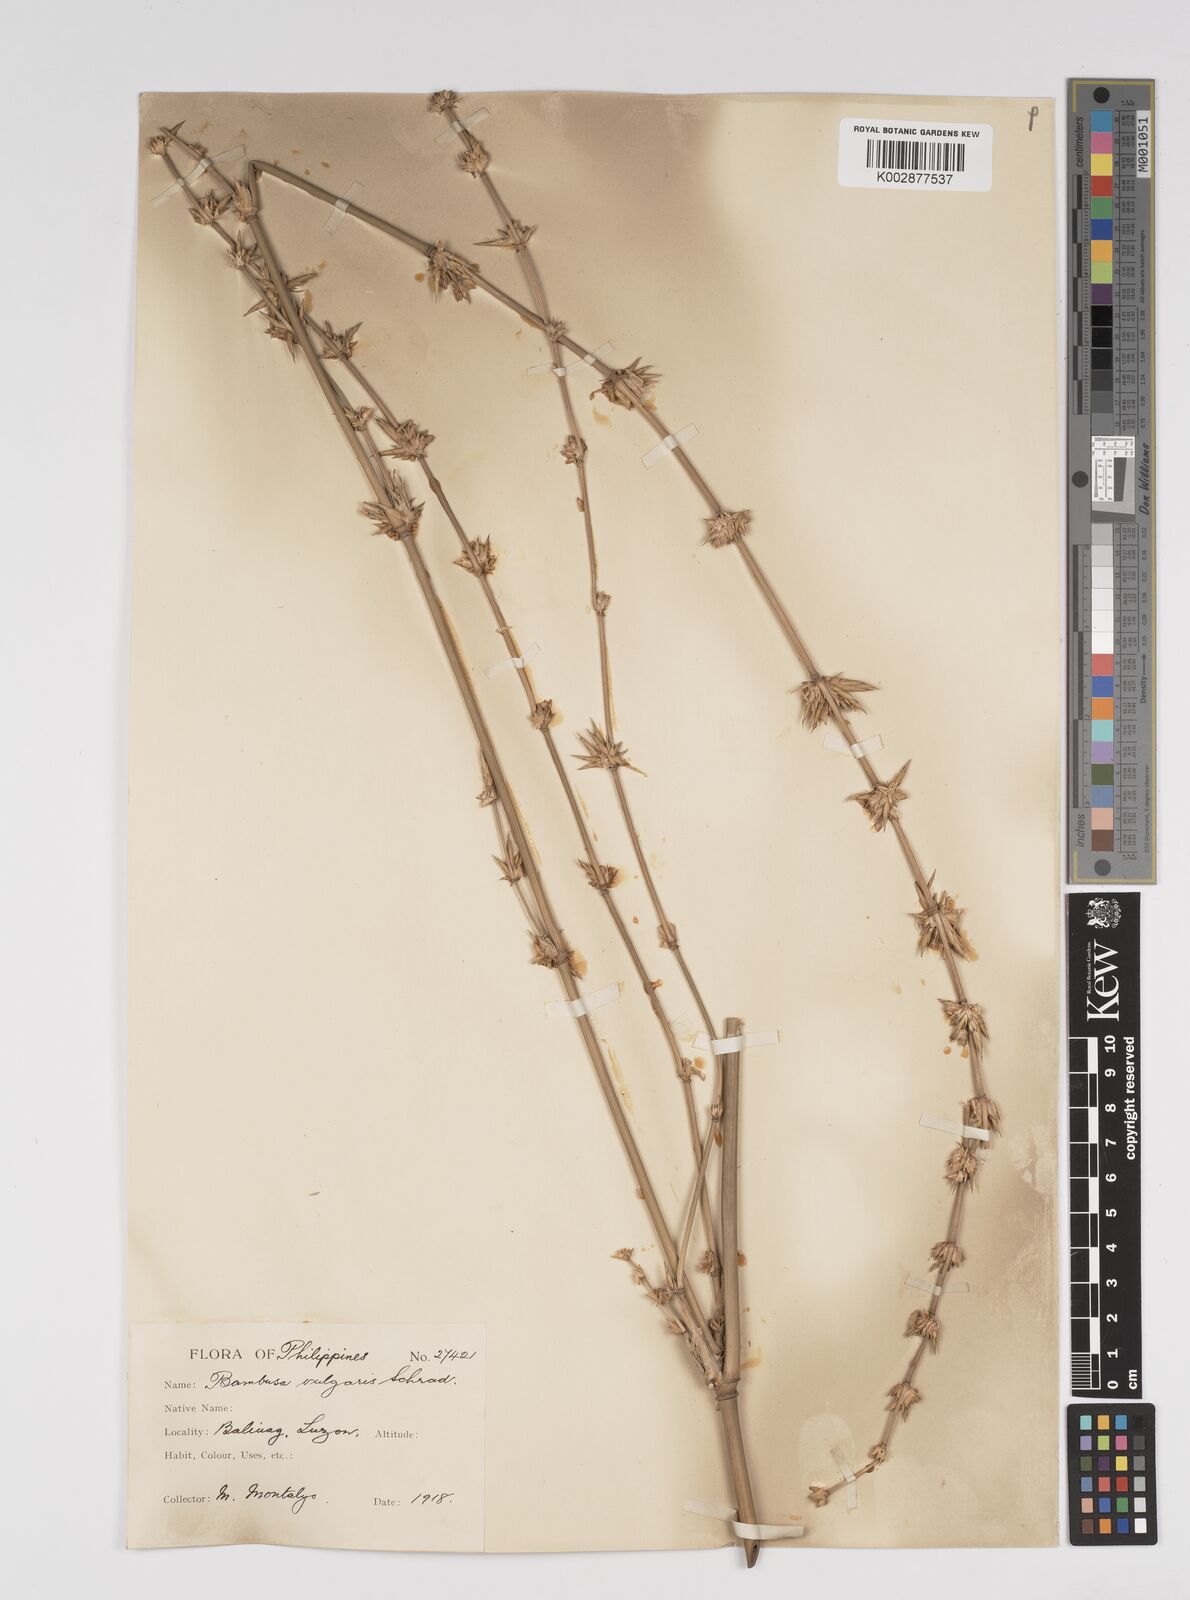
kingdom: Plantae
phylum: Tracheophyta
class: Liliopsida
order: Poales
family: Poaceae
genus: Bambusa
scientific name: Bambusa vulgaris
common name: Common bamboo
